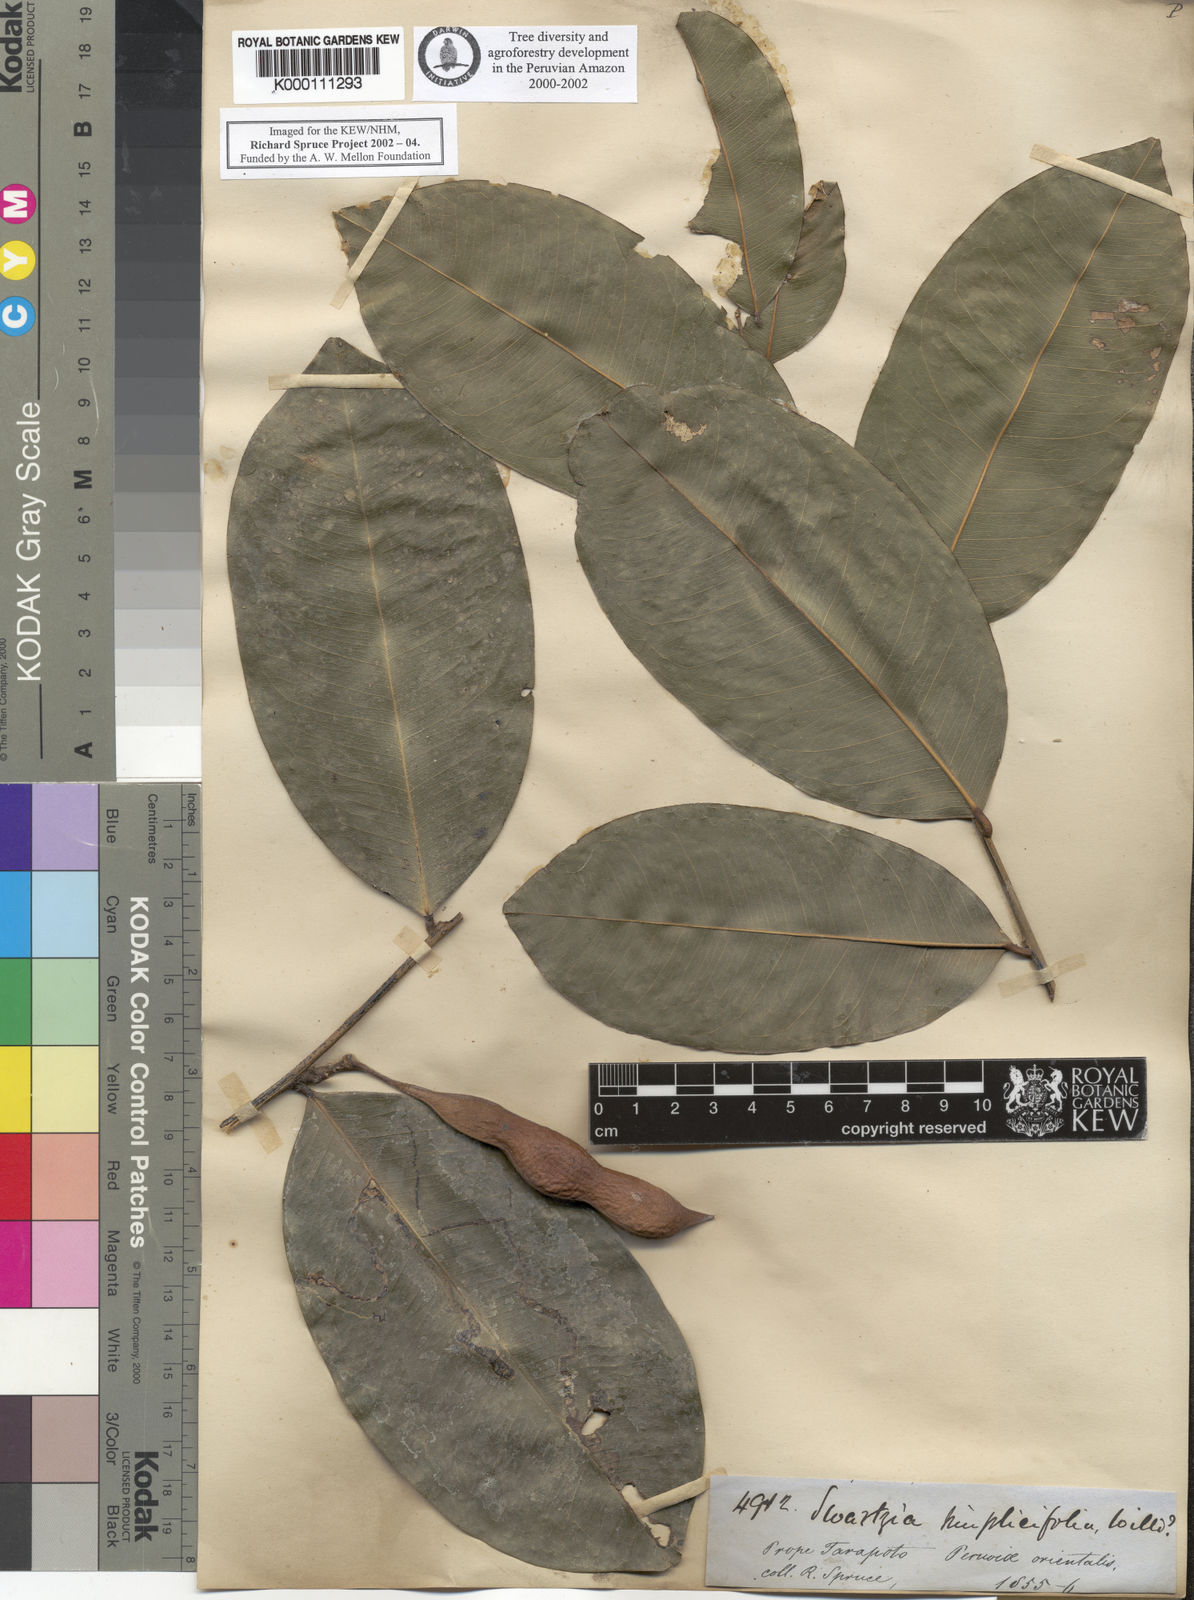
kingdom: Plantae
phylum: Tracheophyta
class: Magnoliopsida
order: Fabales
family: Fabaceae
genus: Swartzia
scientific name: Swartzia simplex
